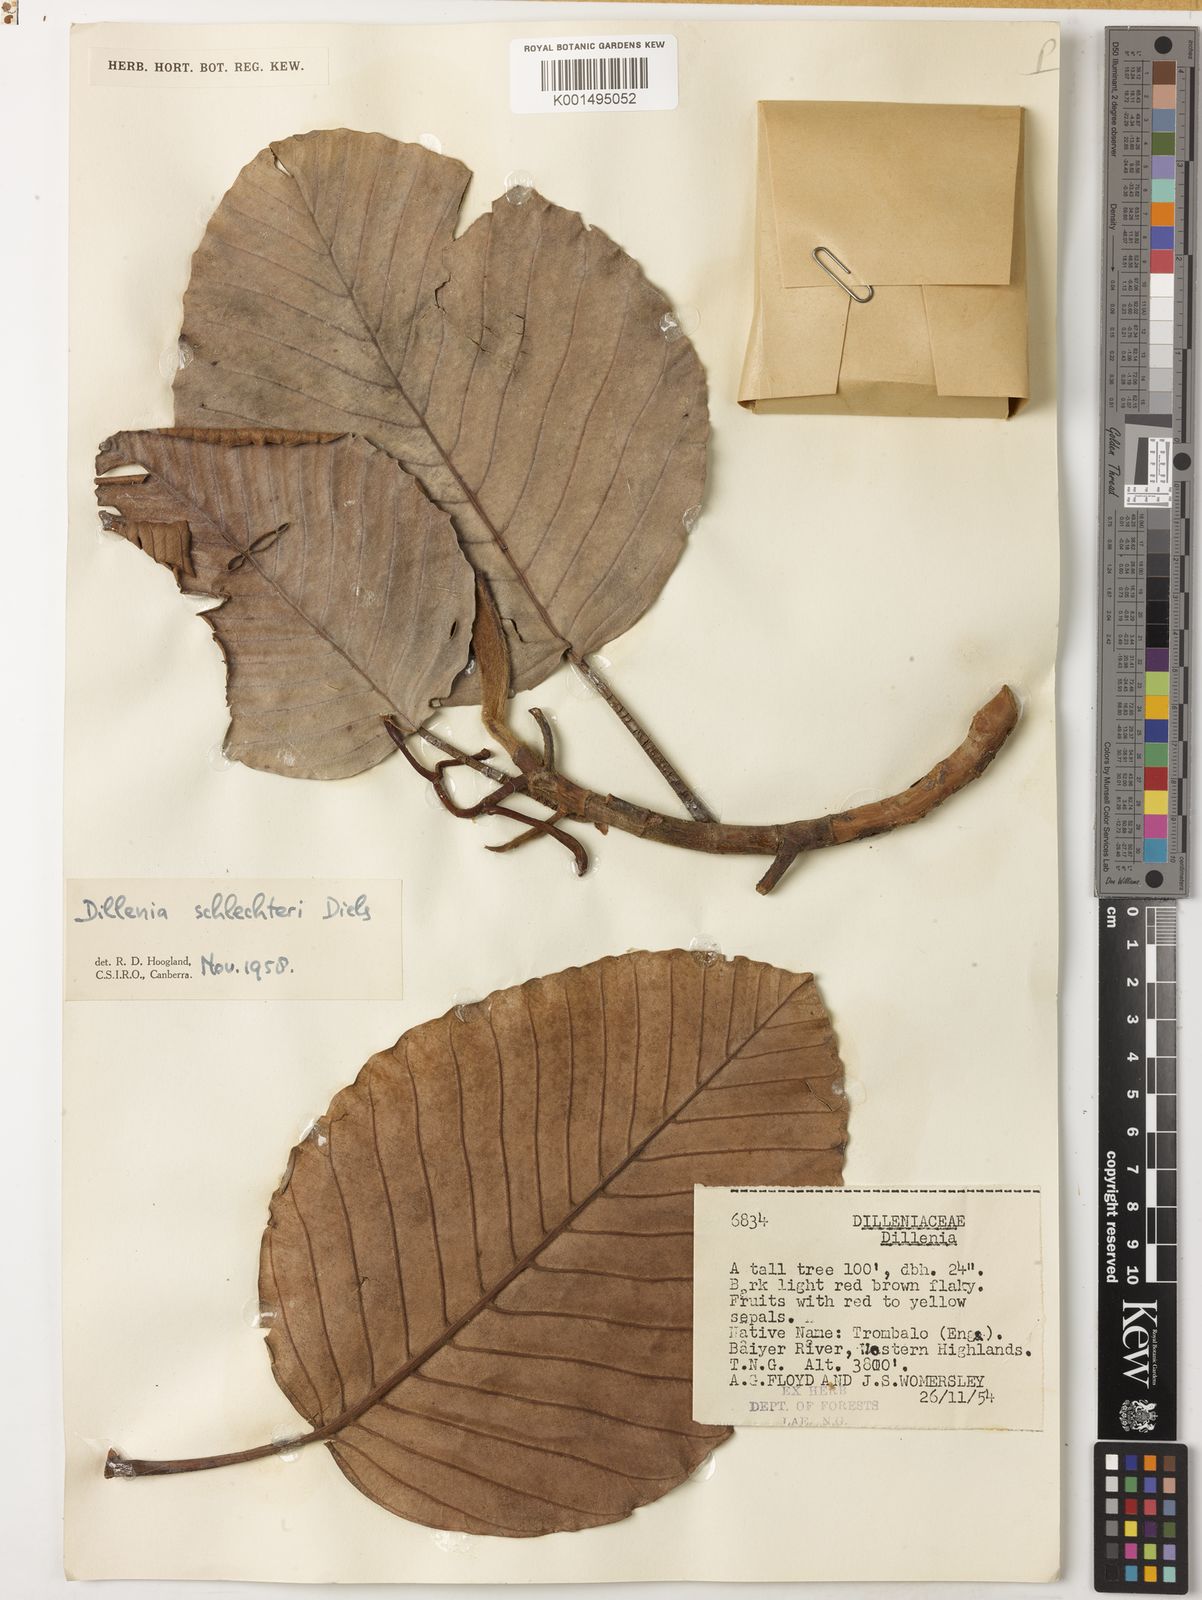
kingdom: Plantae
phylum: Tracheophyta
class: Magnoliopsida
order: Dilleniales
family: Dilleniaceae
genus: Dillenia
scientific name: Dillenia schlechteri
